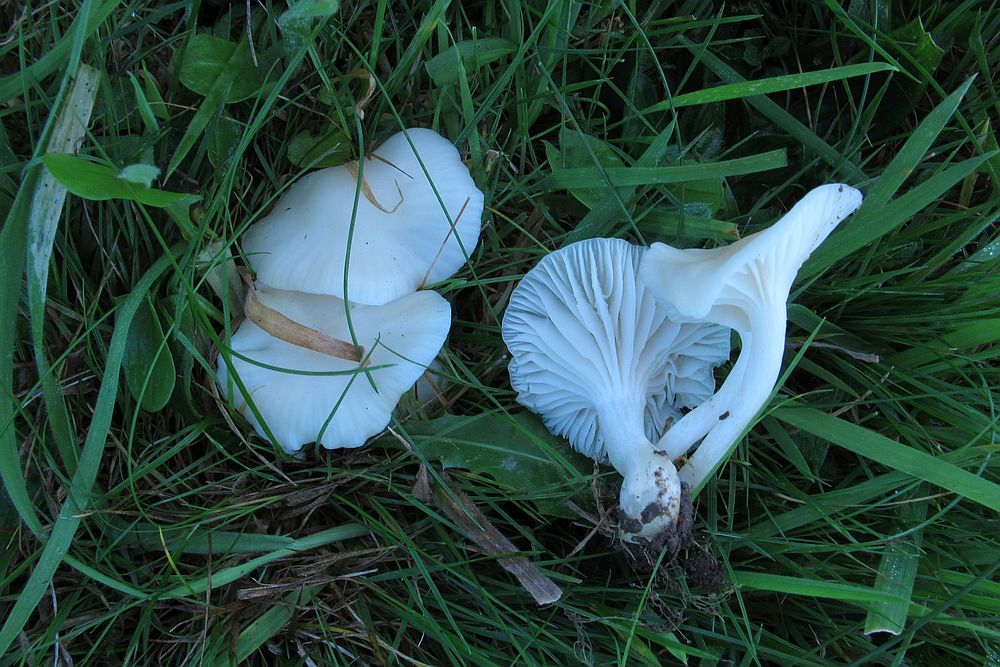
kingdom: Fungi
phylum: Basidiomycota
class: Agaricomycetes
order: Agaricales
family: Hygrophoraceae
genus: Cuphophyllus
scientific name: Cuphophyllus virgineus
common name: snehvid vokshat
